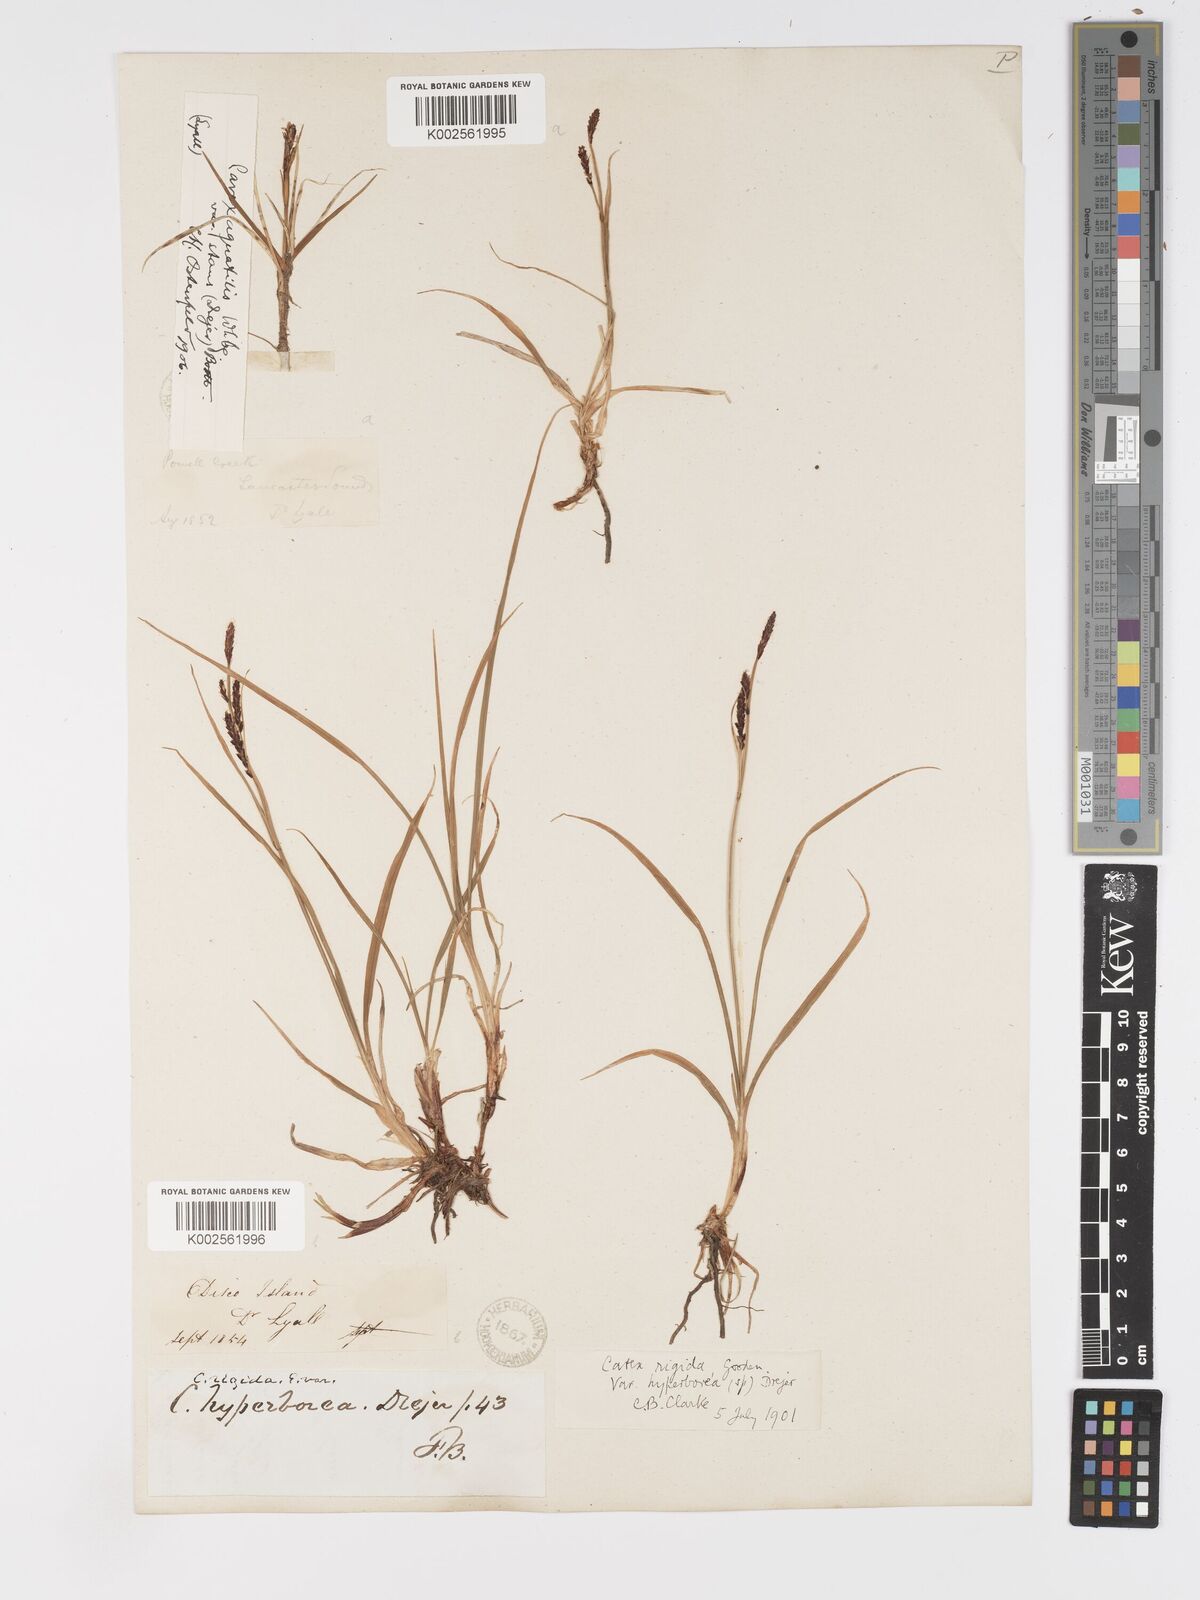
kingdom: Plantae
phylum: Tracheophyta
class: Liliopsida
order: Poales
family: Cyperaceae
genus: Carex
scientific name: Carex bigelowii
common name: Stiff sedge
